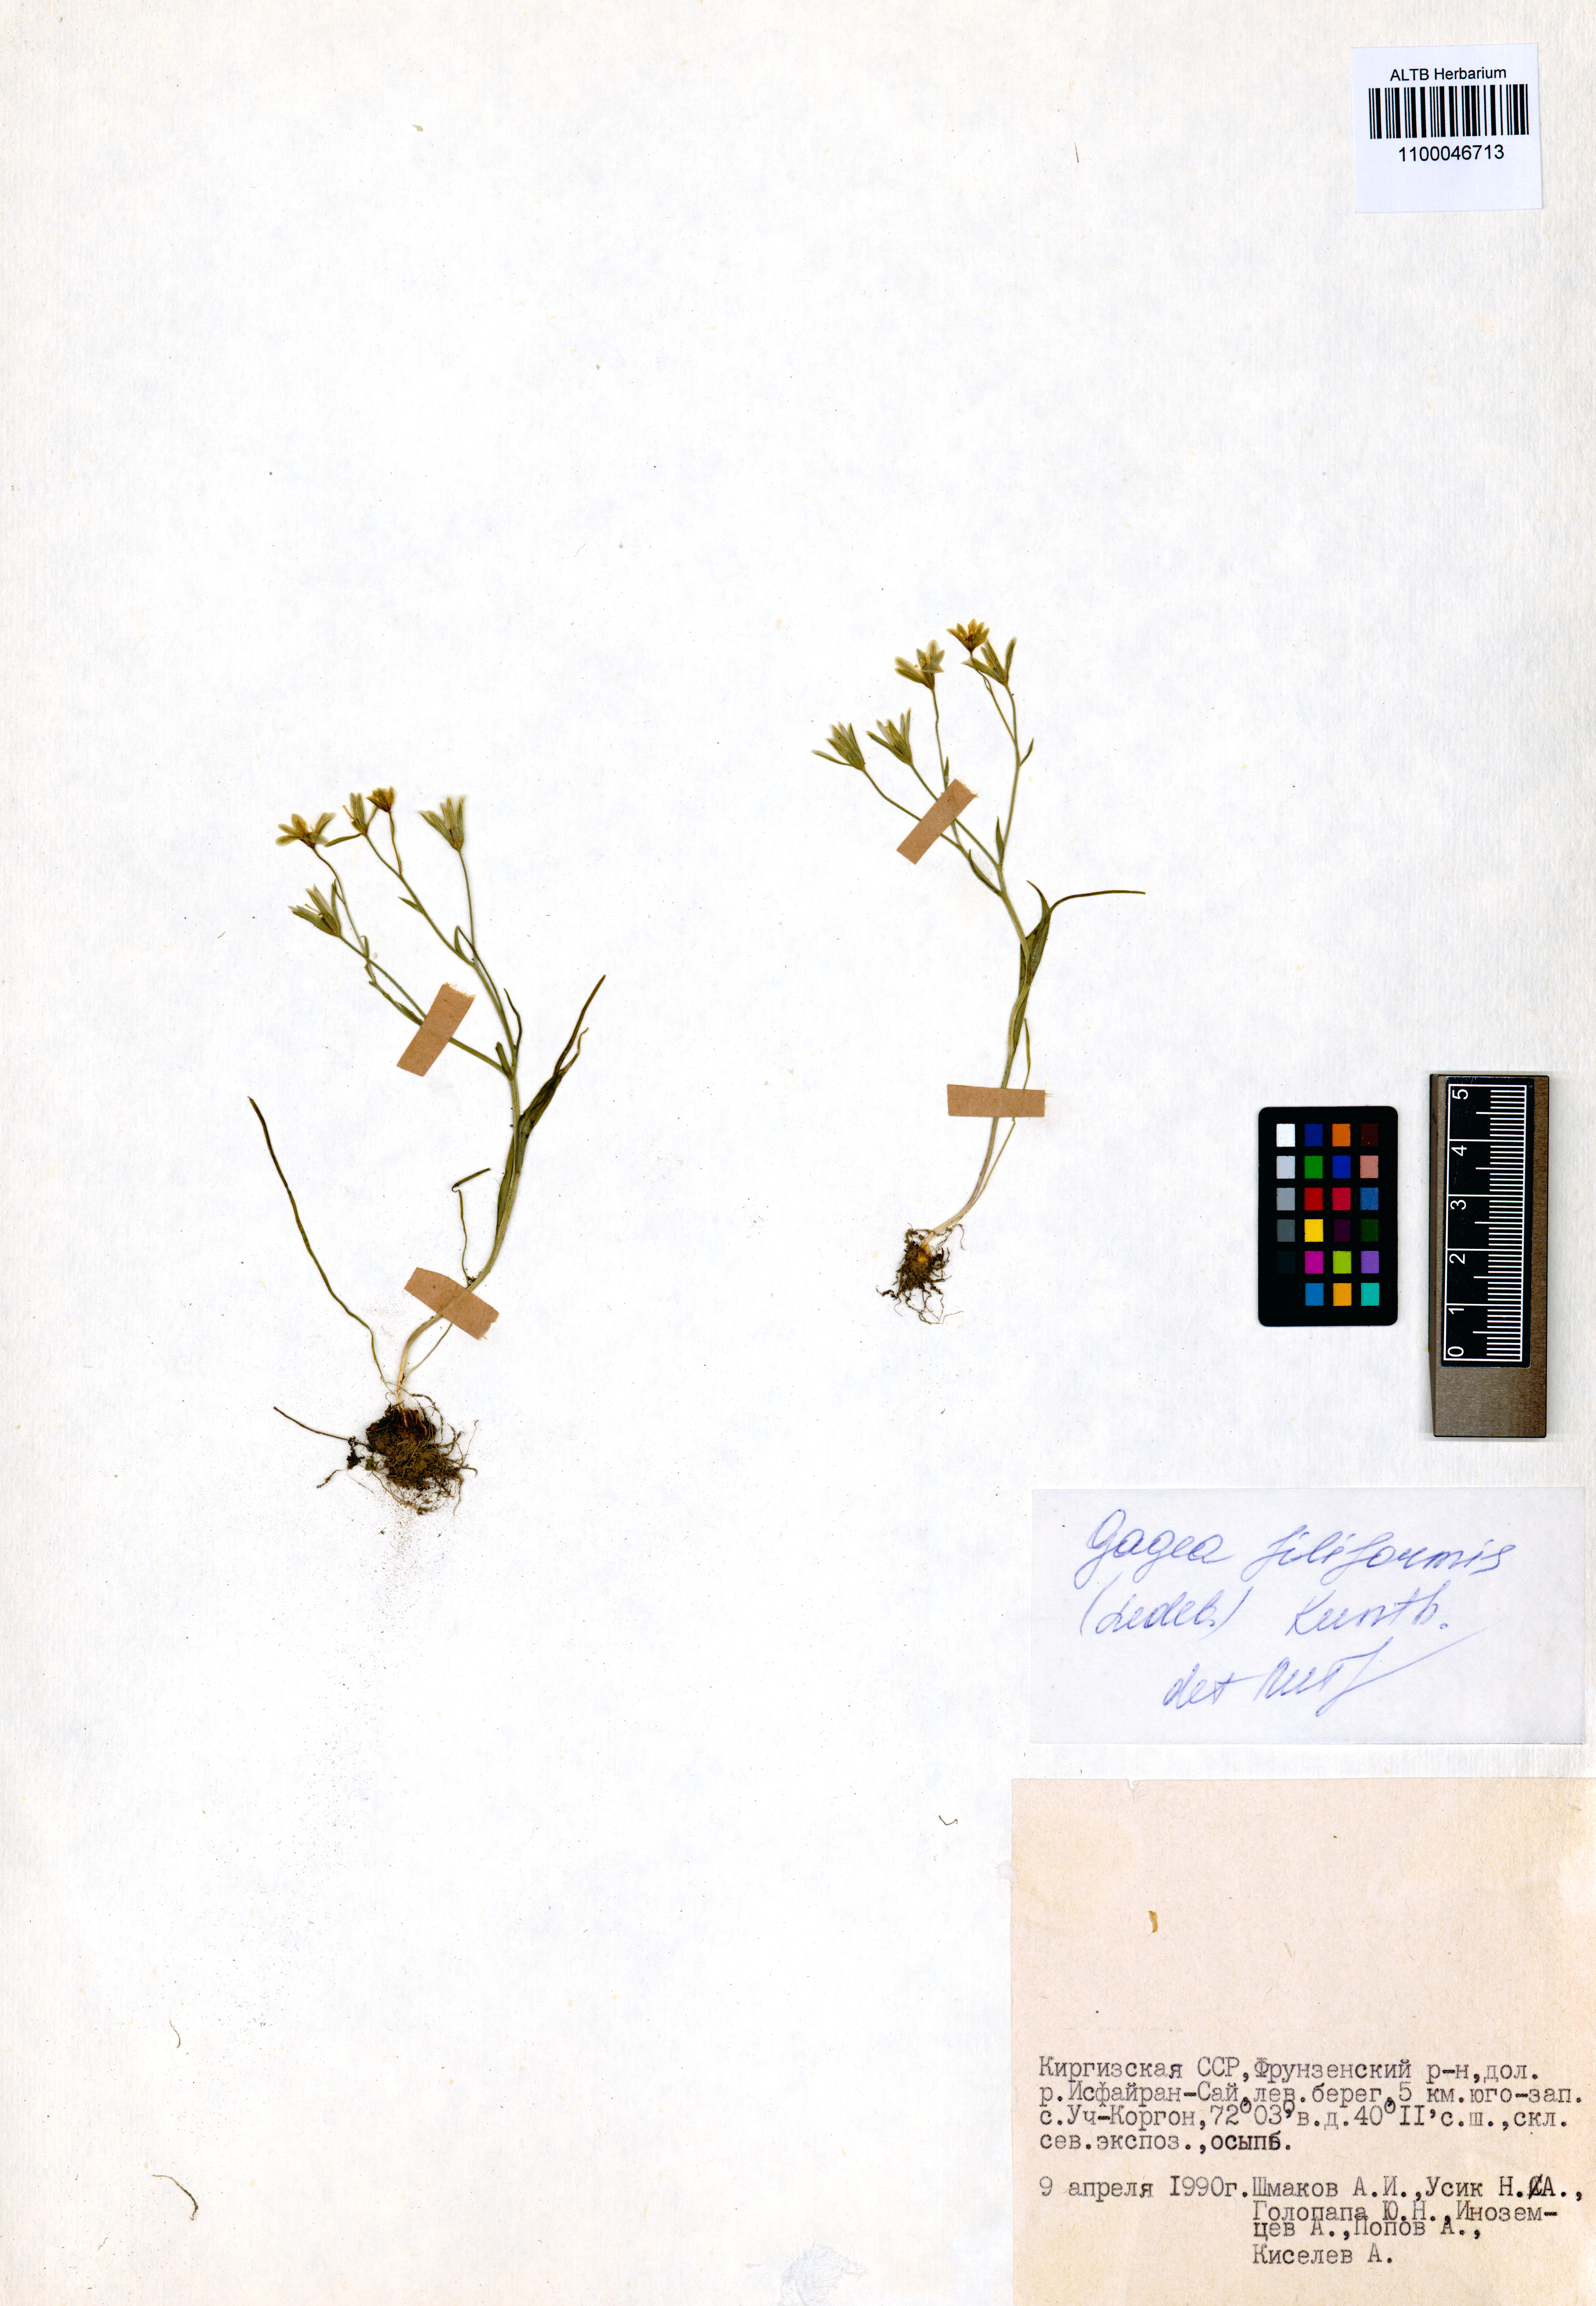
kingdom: Plantae
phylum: Tracheophyta
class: Liliopsida
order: Liliales
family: Liliaceae
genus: Gagea
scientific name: Gagea filiformis
